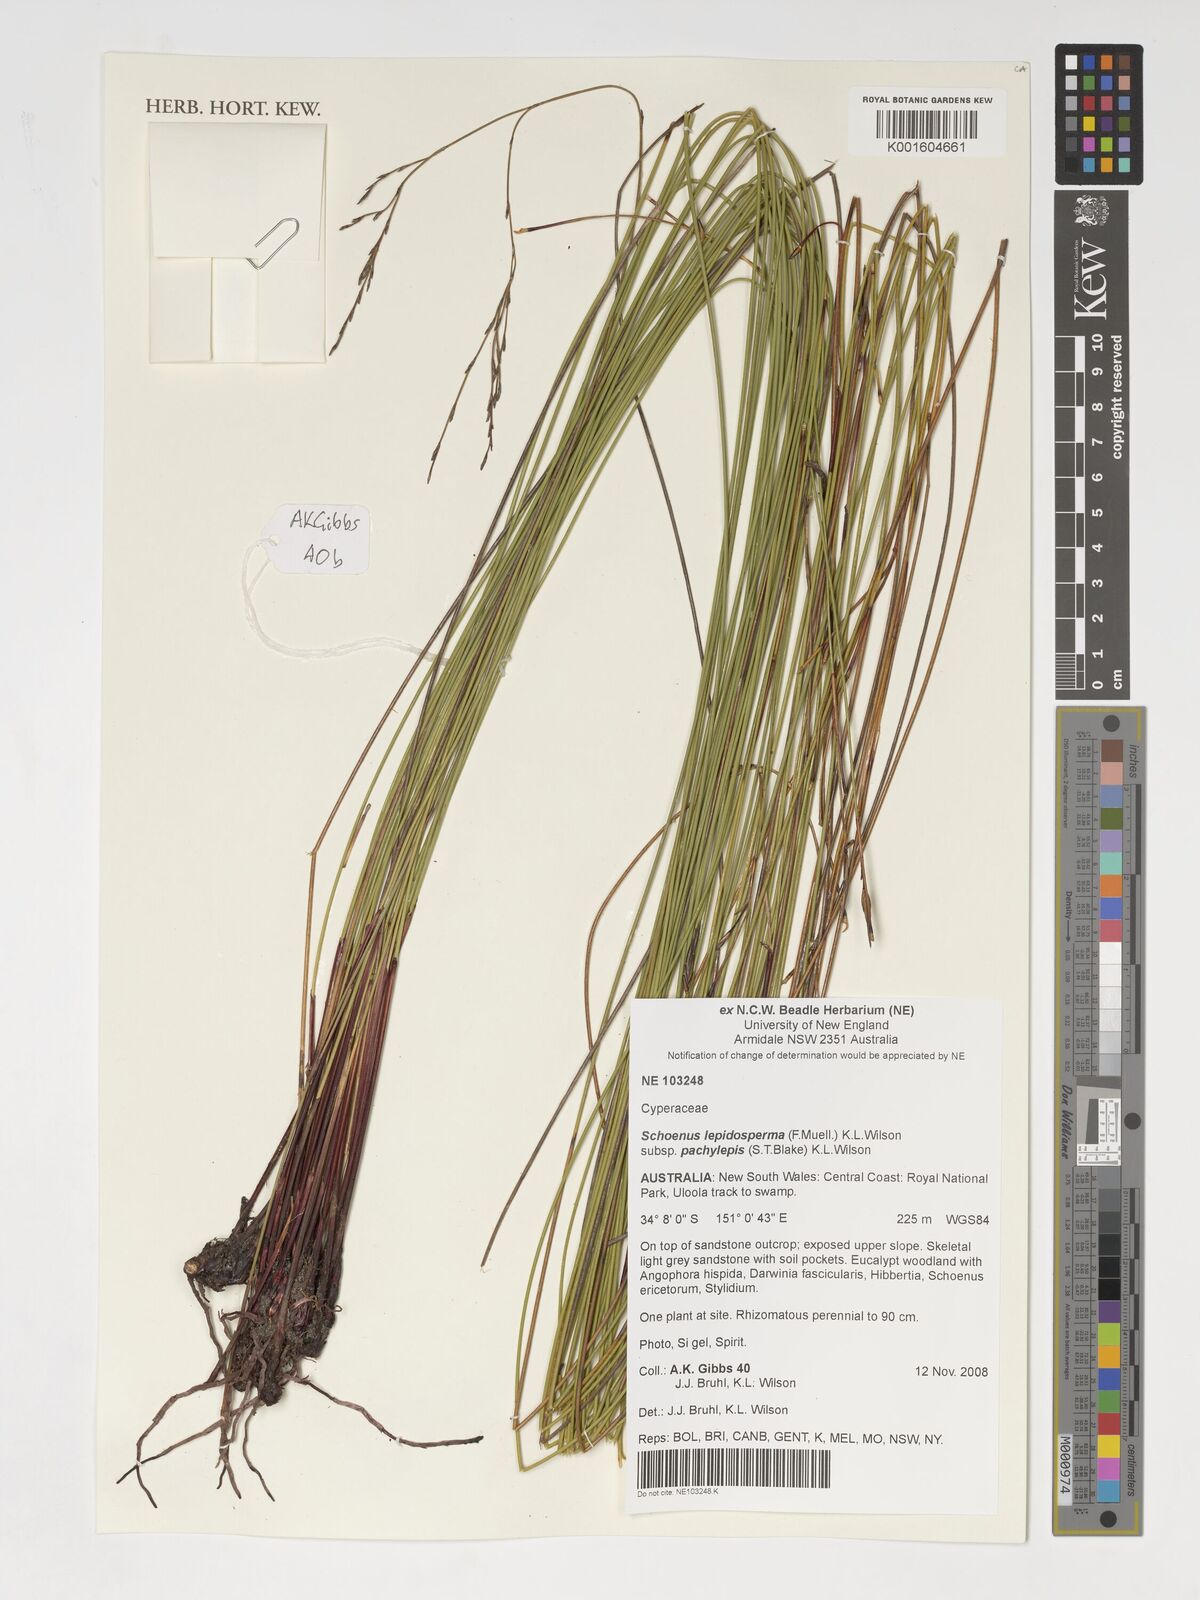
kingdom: Plantae
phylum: Tracheophyta
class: Liliopsida
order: Poales
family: Cyperaceae
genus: Schoenus
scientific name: Schoenus lepidosperma
